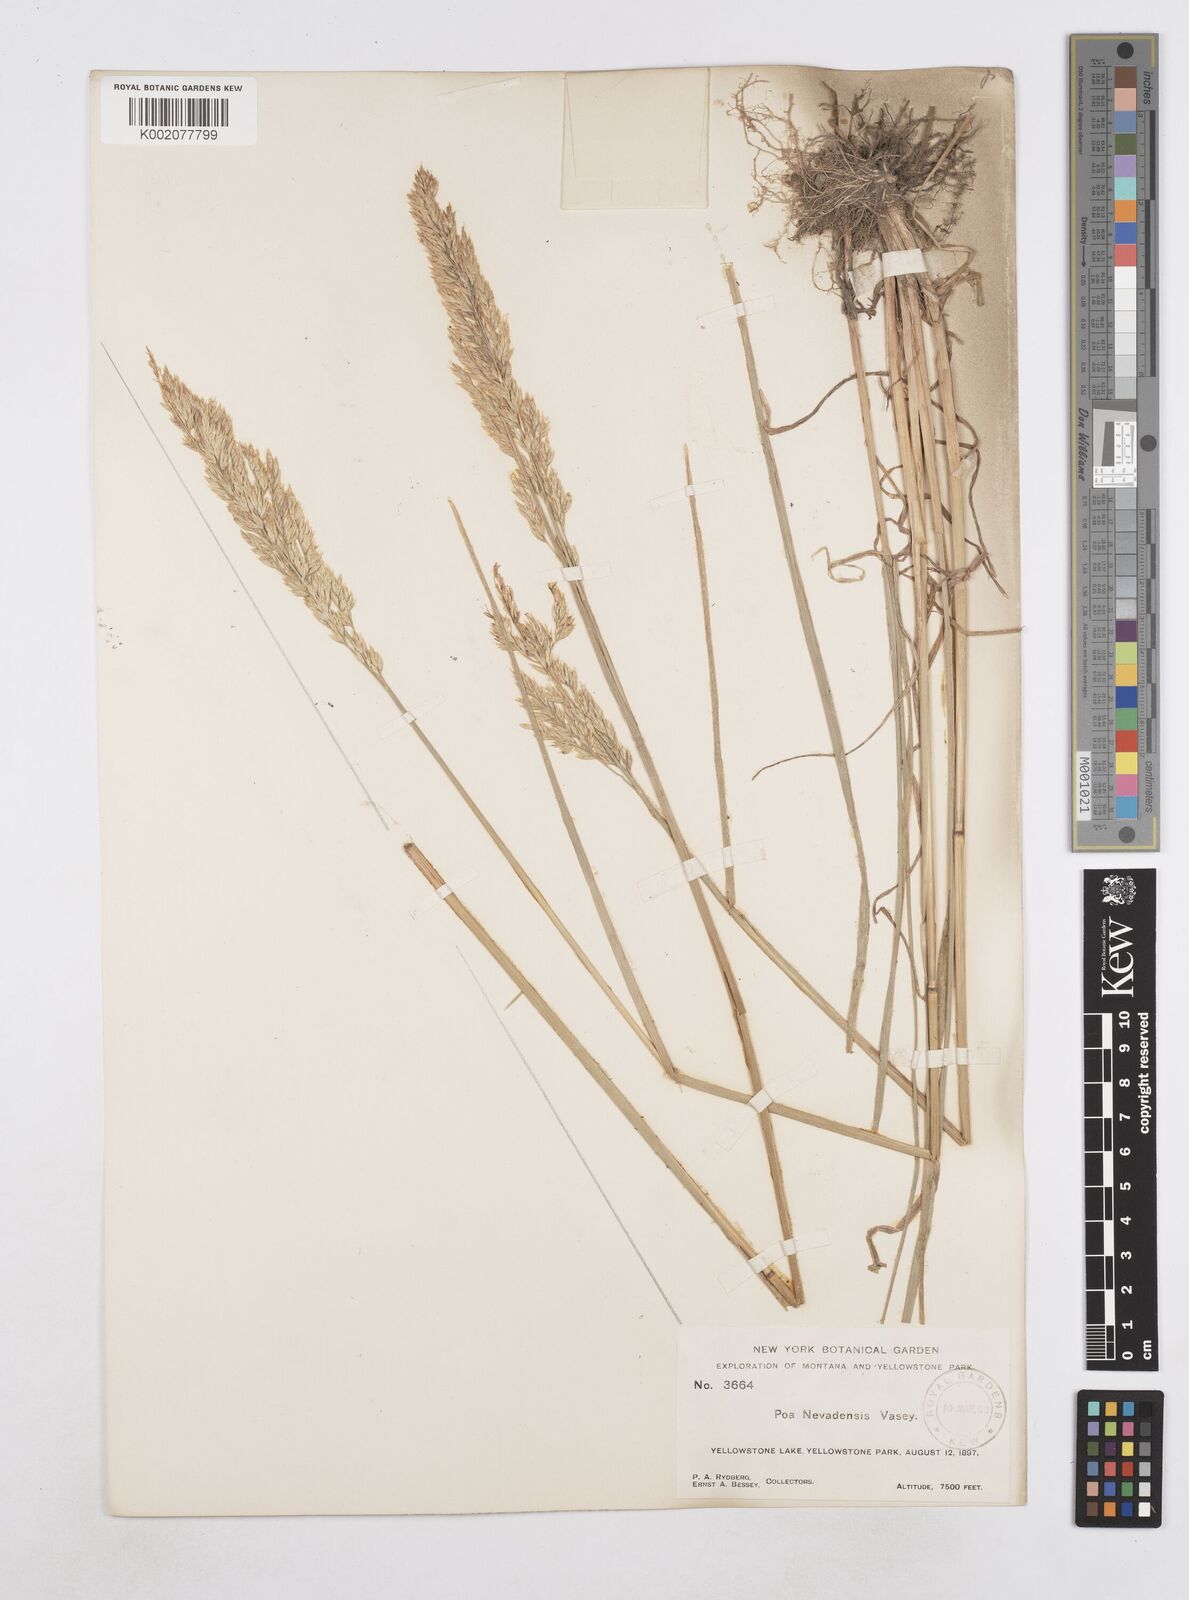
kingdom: Plantae
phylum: Tracheophyta
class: Liliopsida
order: Poales
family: Poaceae
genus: Poa
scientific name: Poa secunda
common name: Sandberg bluegrass
